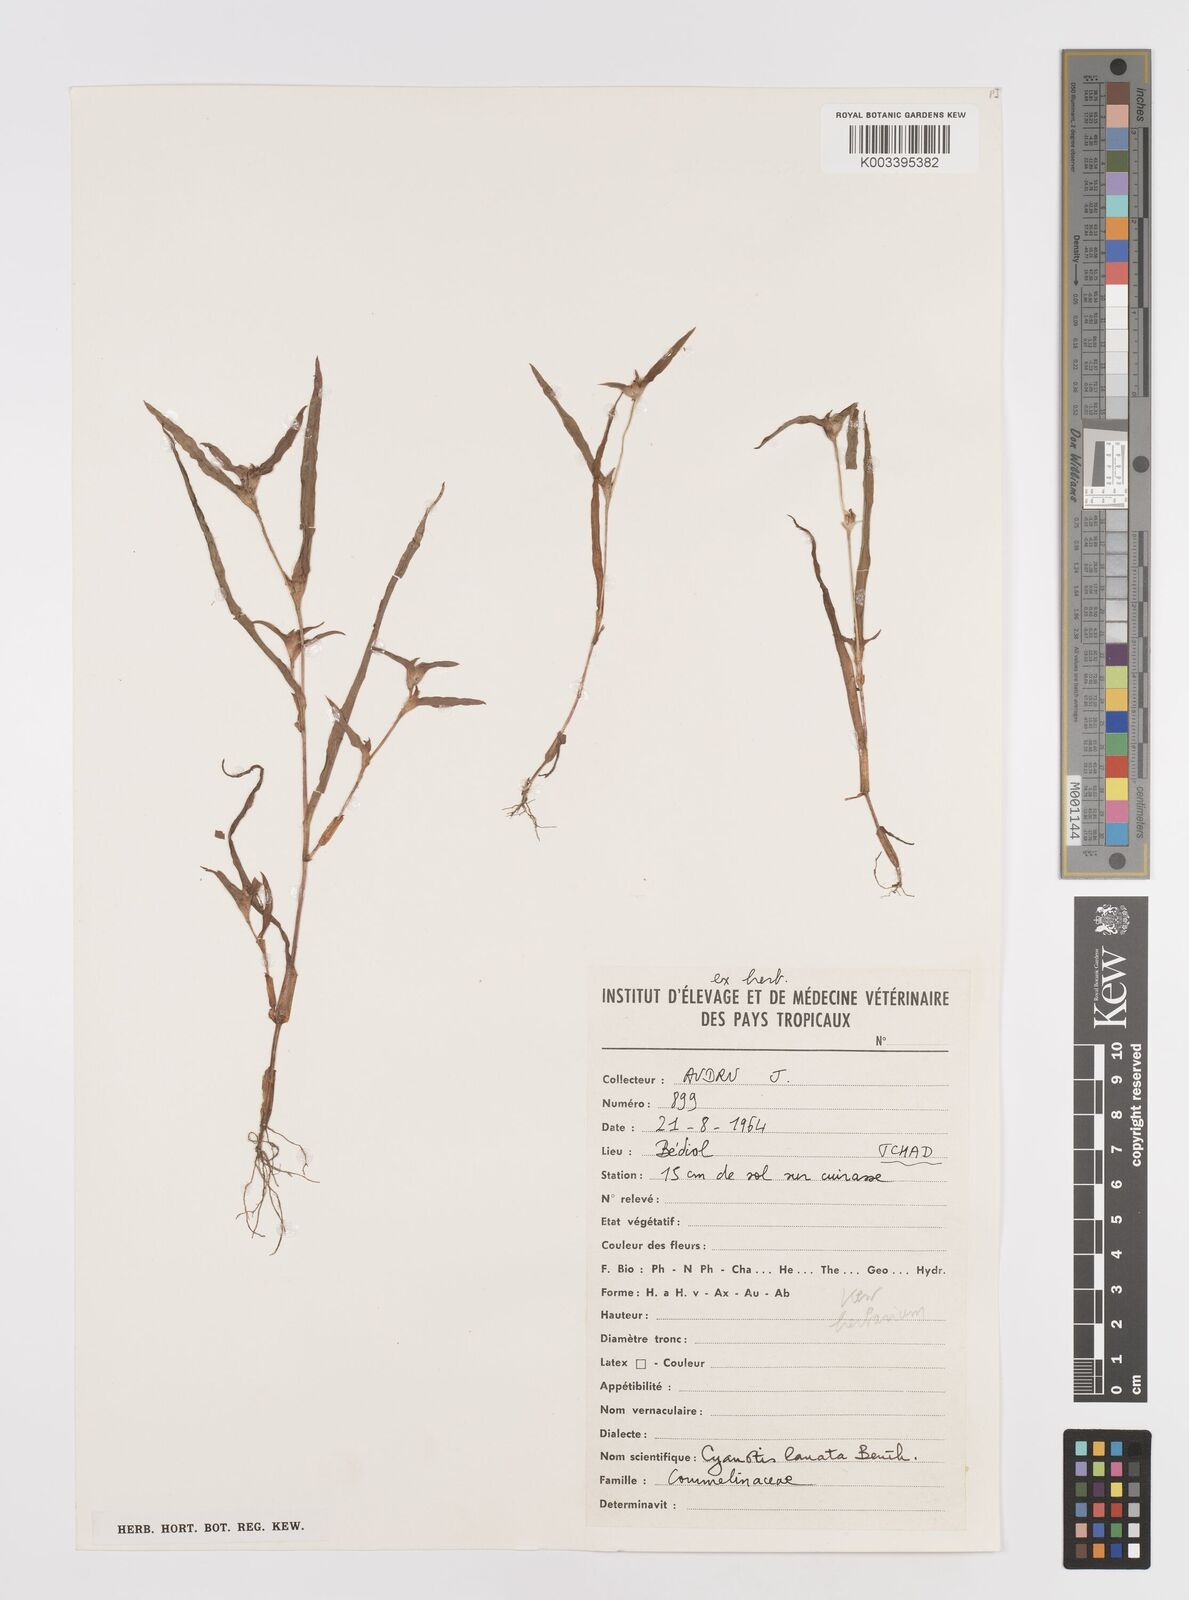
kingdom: Plantae
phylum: Tracheophyta
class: Liliopsida
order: Commelinales
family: Commelinaceae
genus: Cyanotis
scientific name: Cyanotis lanata
